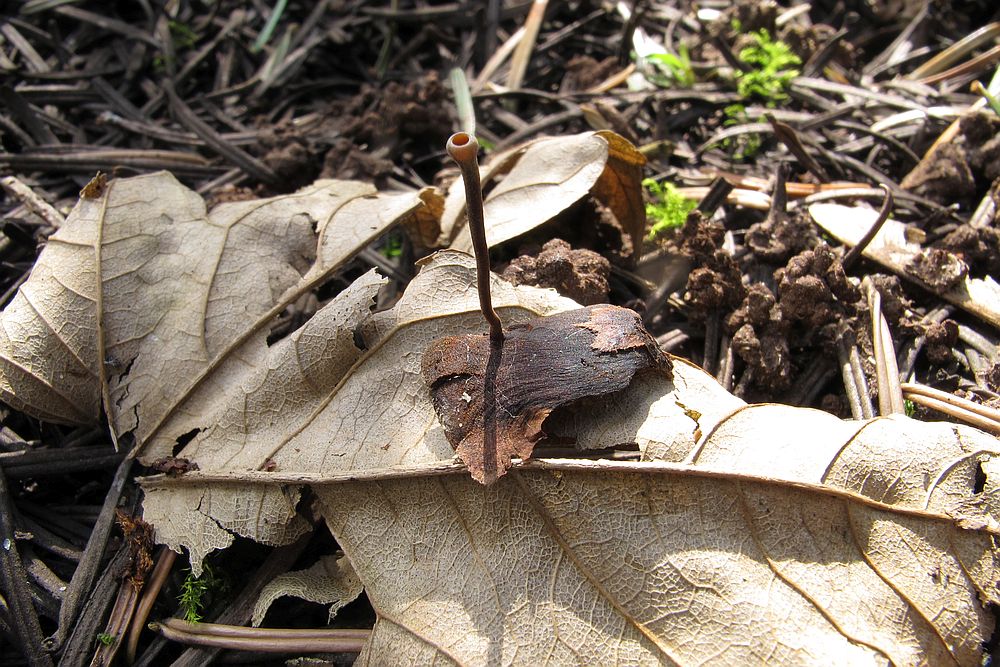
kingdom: Fungi
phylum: Ascomycota
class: Leotiomycetes
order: Helotiales
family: Sclerotiniaceae
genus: Ciboria
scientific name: Ciboria rufofusca
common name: kogleskæl-knoldskive
